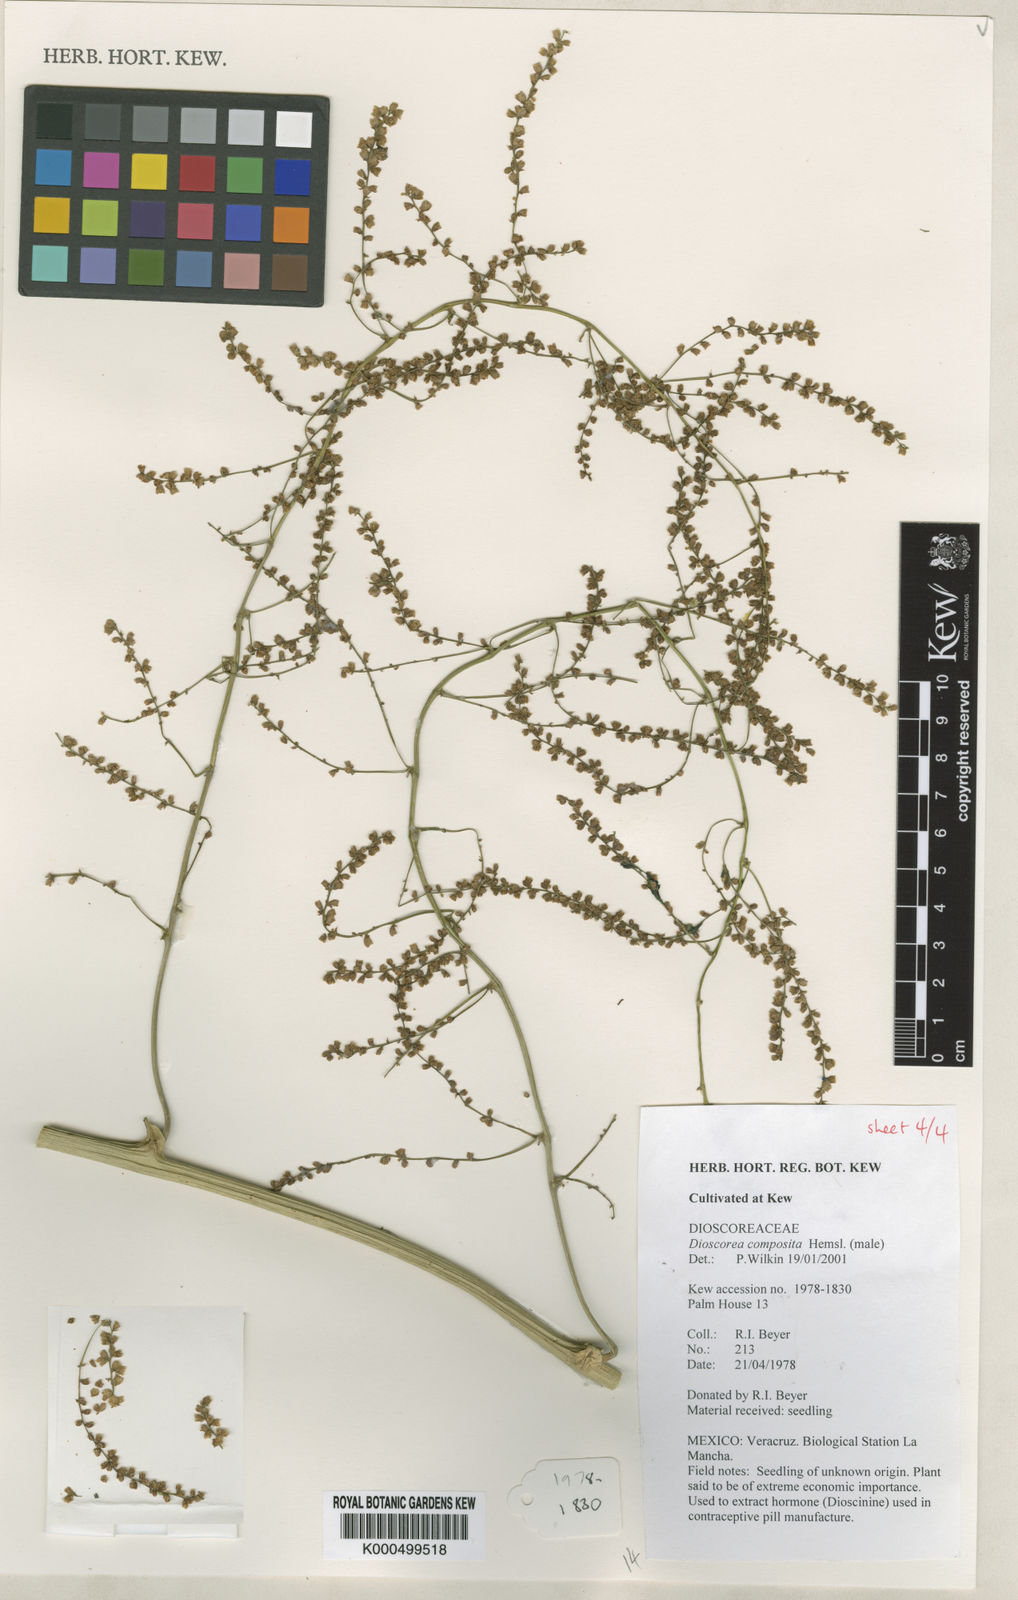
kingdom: Plantae
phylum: Tracheophyta
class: Liliopsida
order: Dioscoreales
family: Dioscoreaceae
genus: Dioscorea
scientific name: Dioscorea composita
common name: Barbasco
